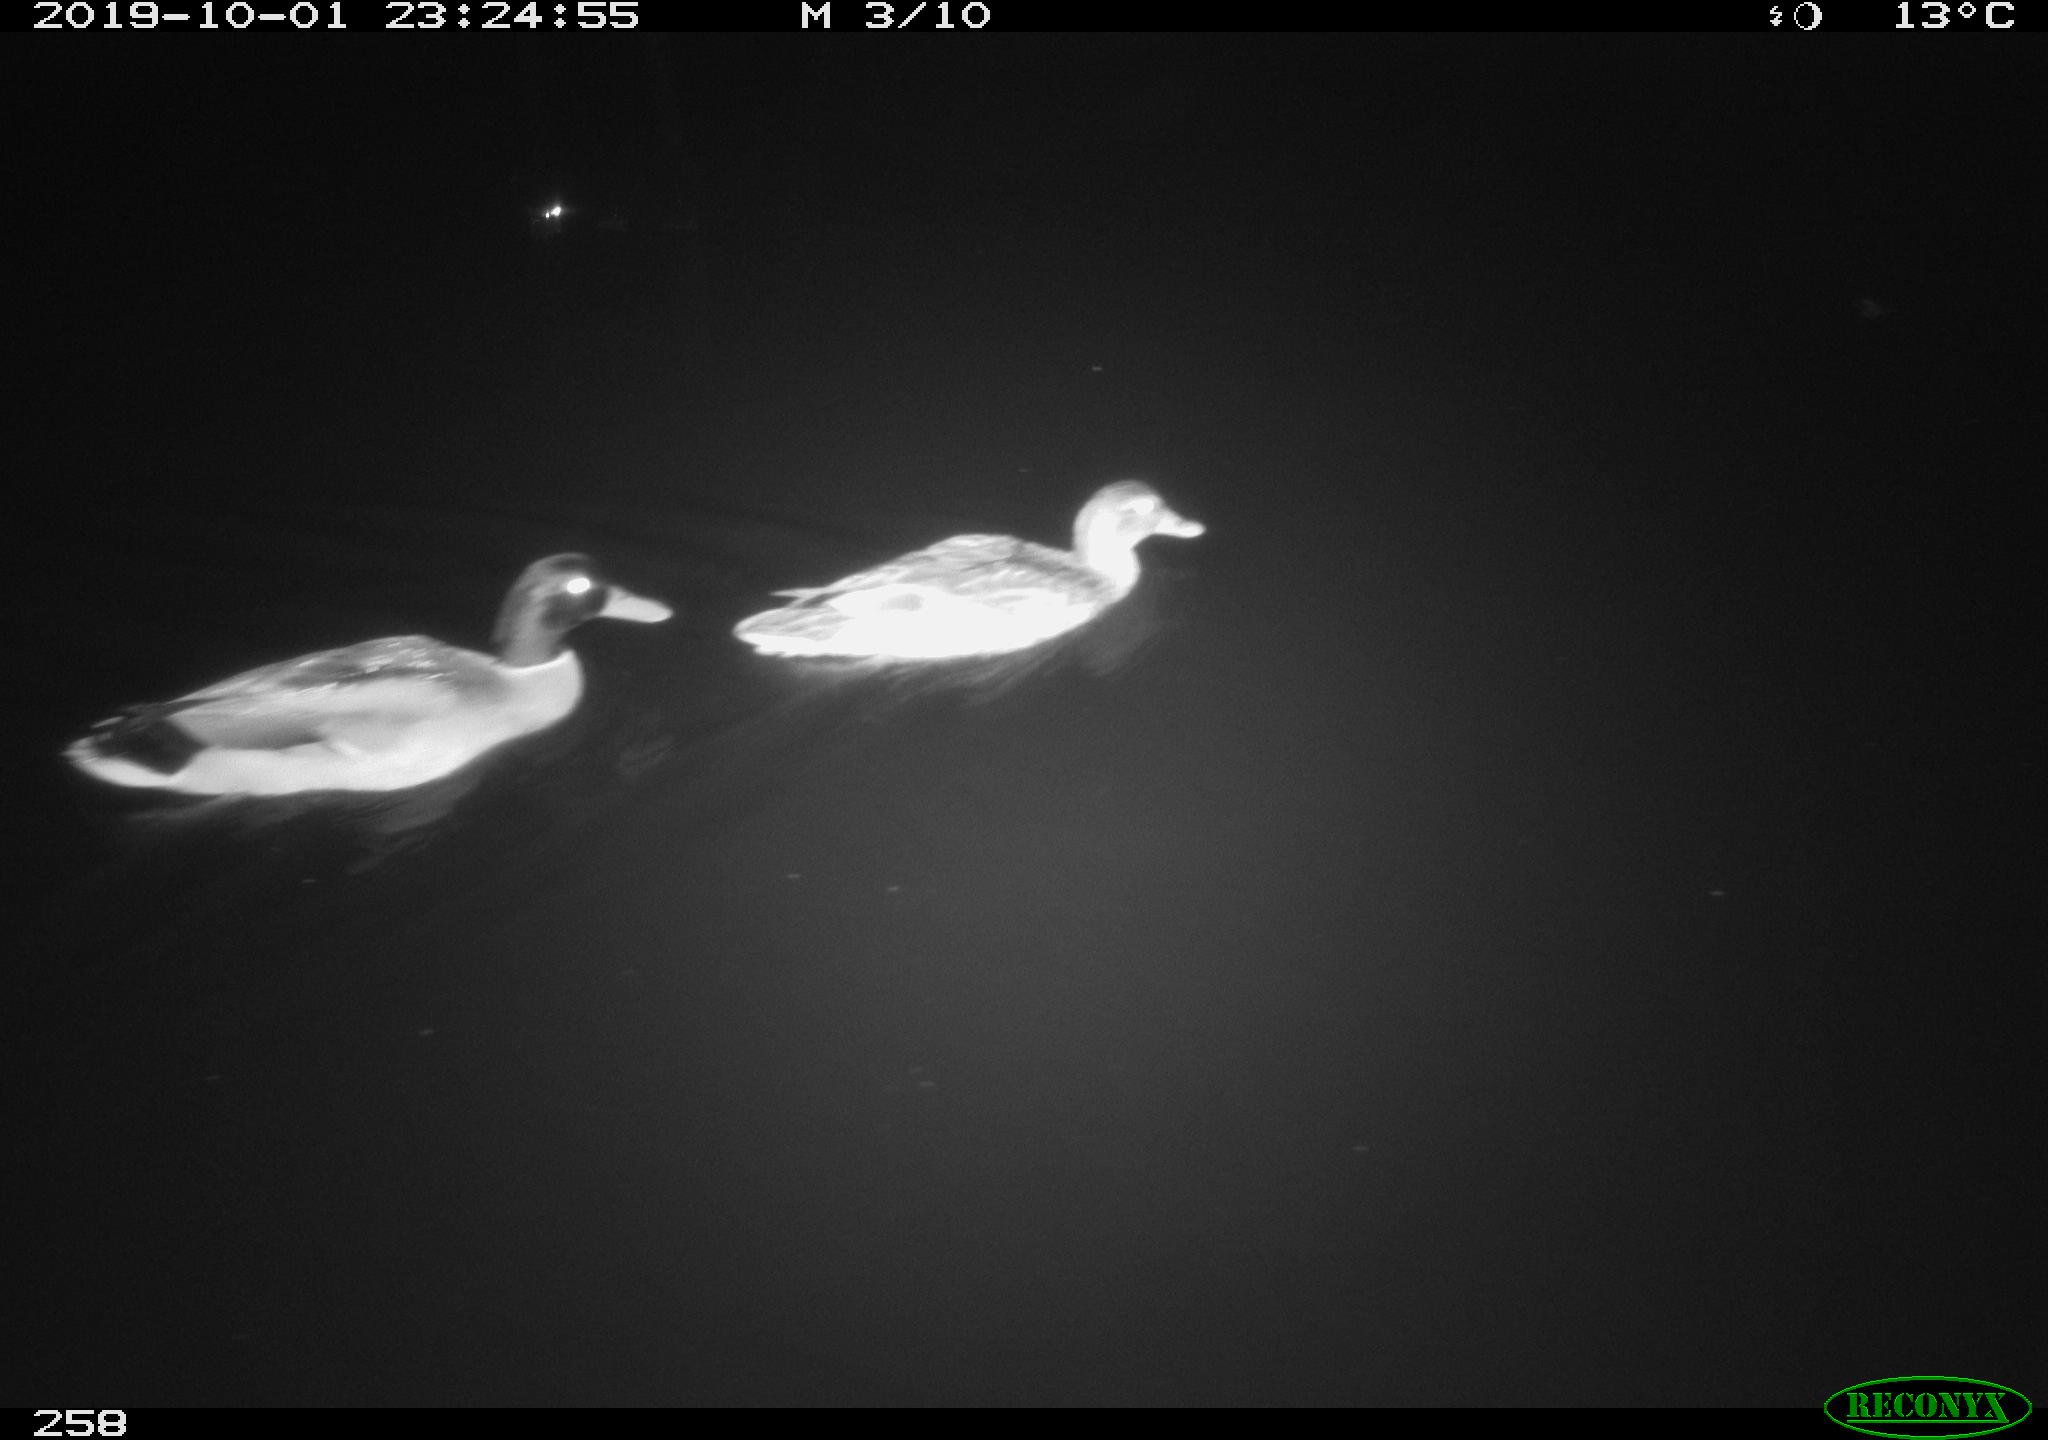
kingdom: Animalia
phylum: Chordata
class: Aves
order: Anseriformes
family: Anatidae
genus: Anas
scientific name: Anas platyrhynchos
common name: Mallard
